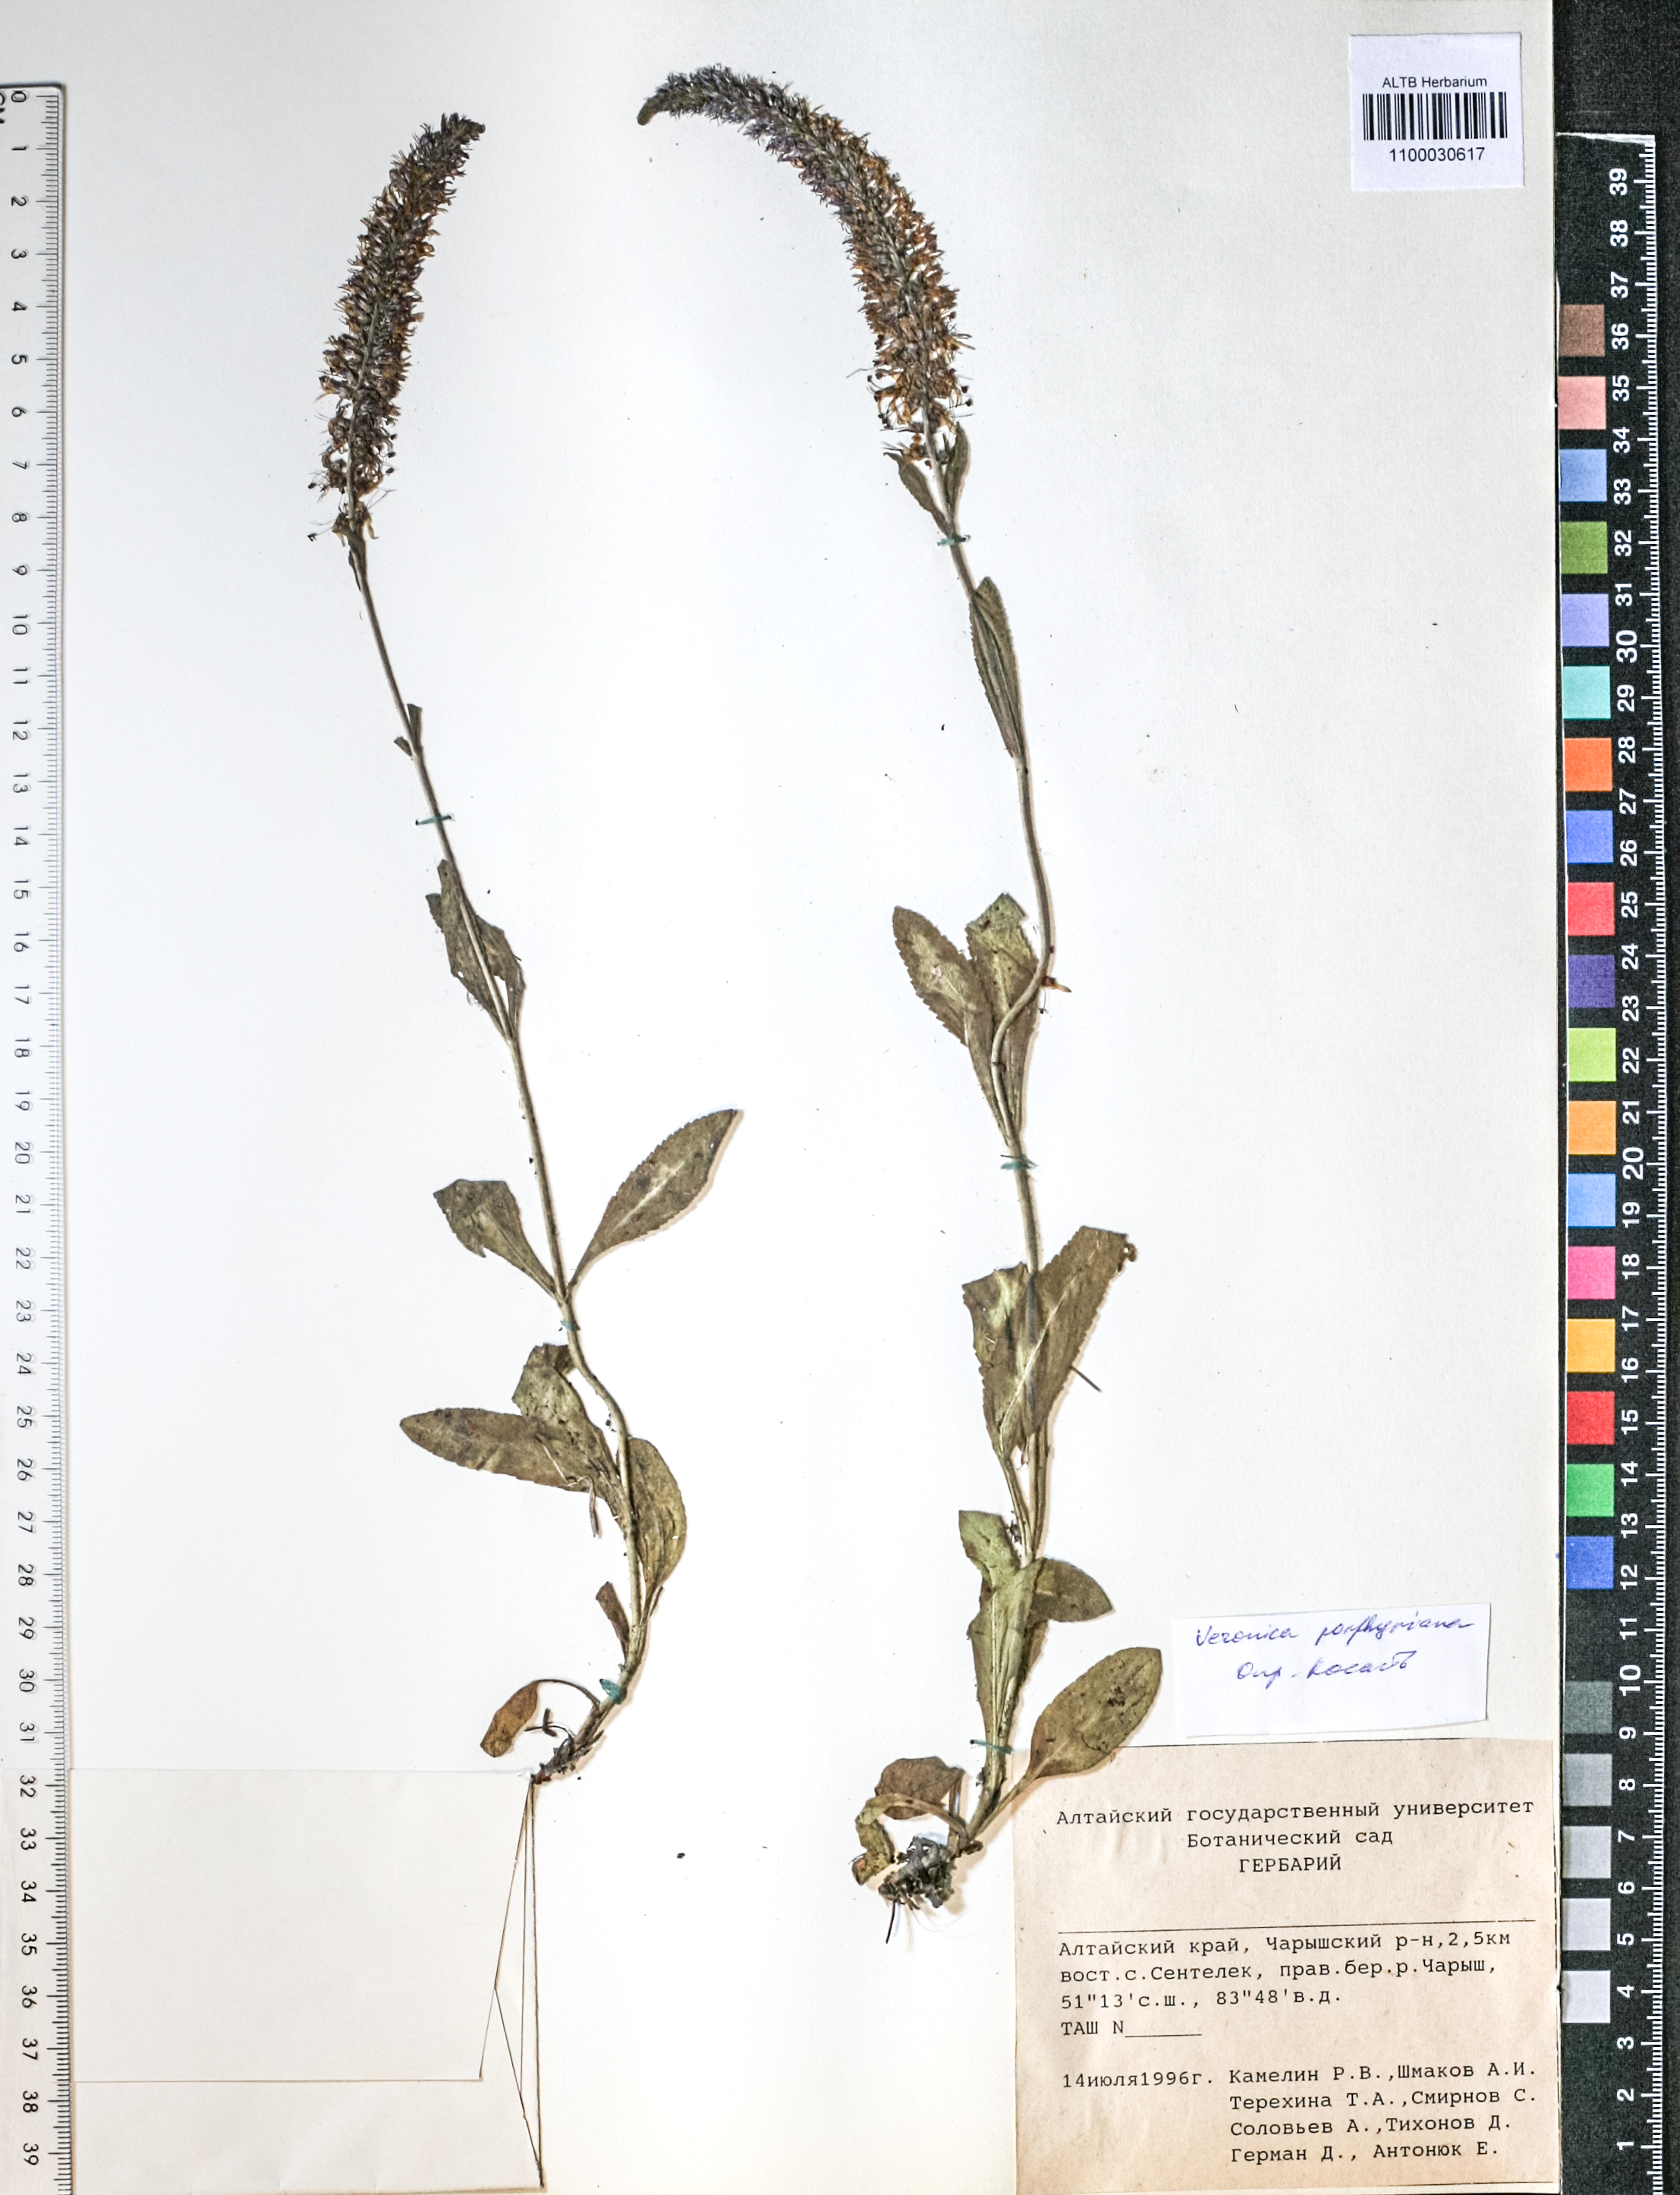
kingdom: Plantae
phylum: Tracheophyta
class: Magnoliopsida
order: Lamiales
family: Plantaginaceae
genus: Veronica
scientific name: Veronica porphyriana
